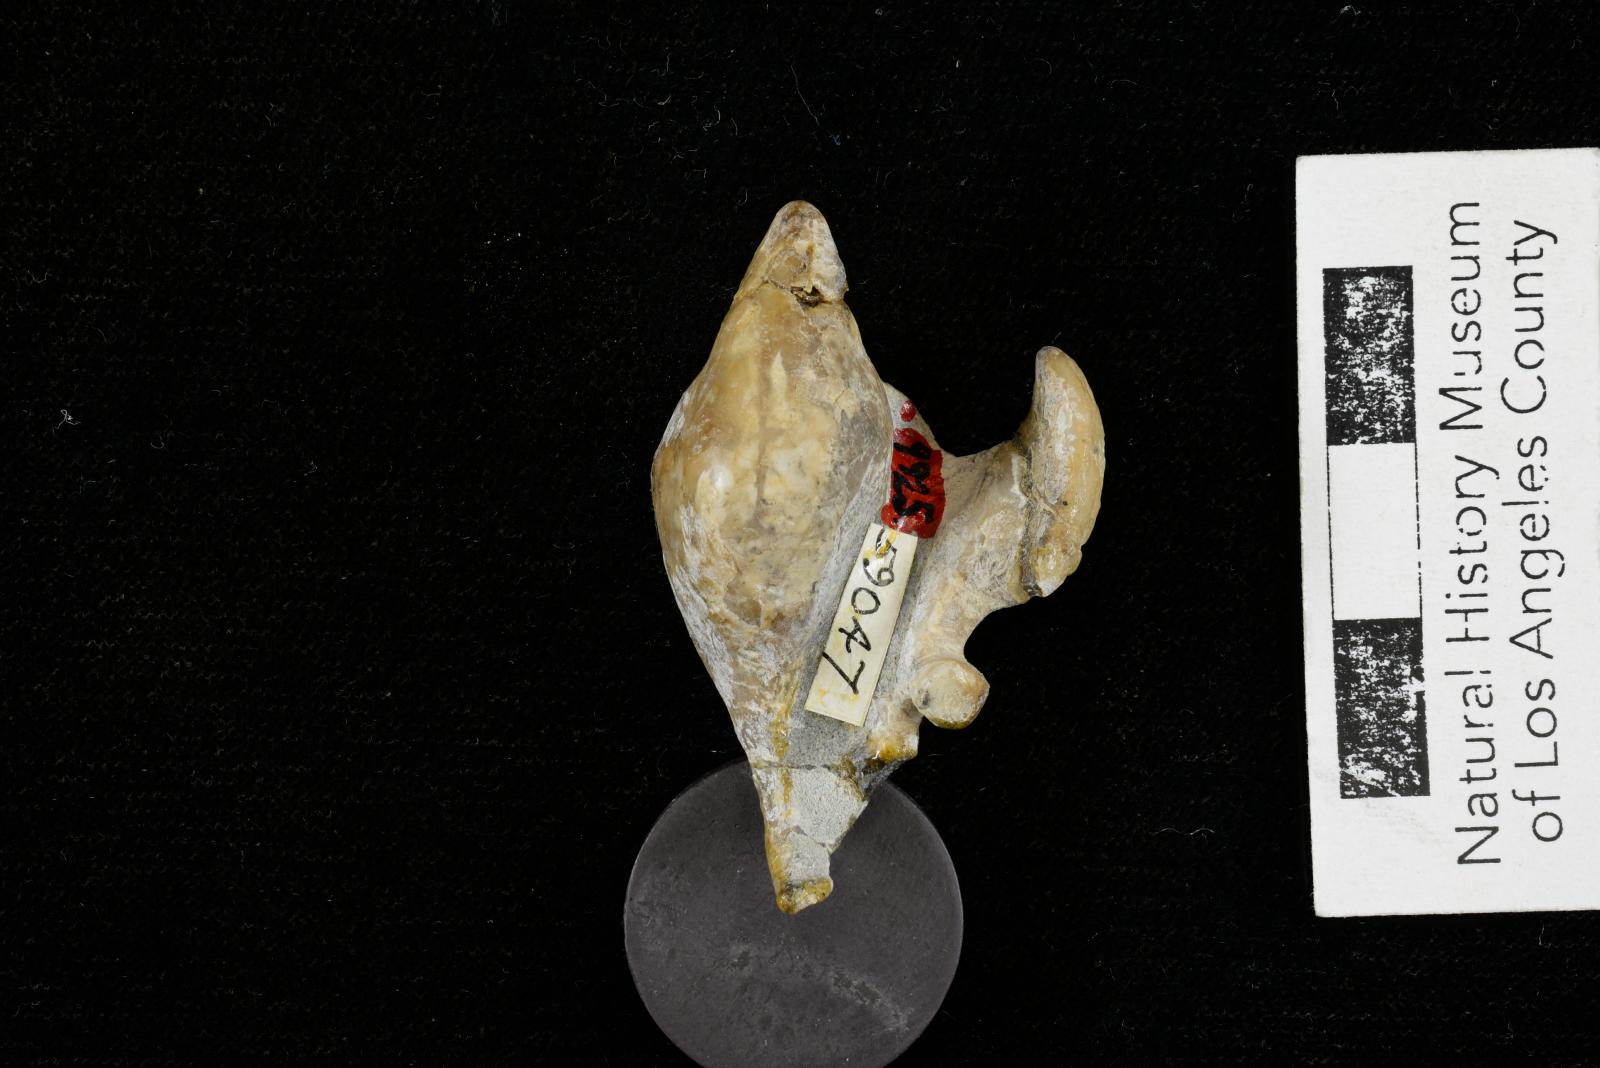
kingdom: Animalia
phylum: Mollusca
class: Gastropoda
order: Littorinimorpha
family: Aporrhaidae
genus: Pyktes
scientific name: Pyktes daiphron
